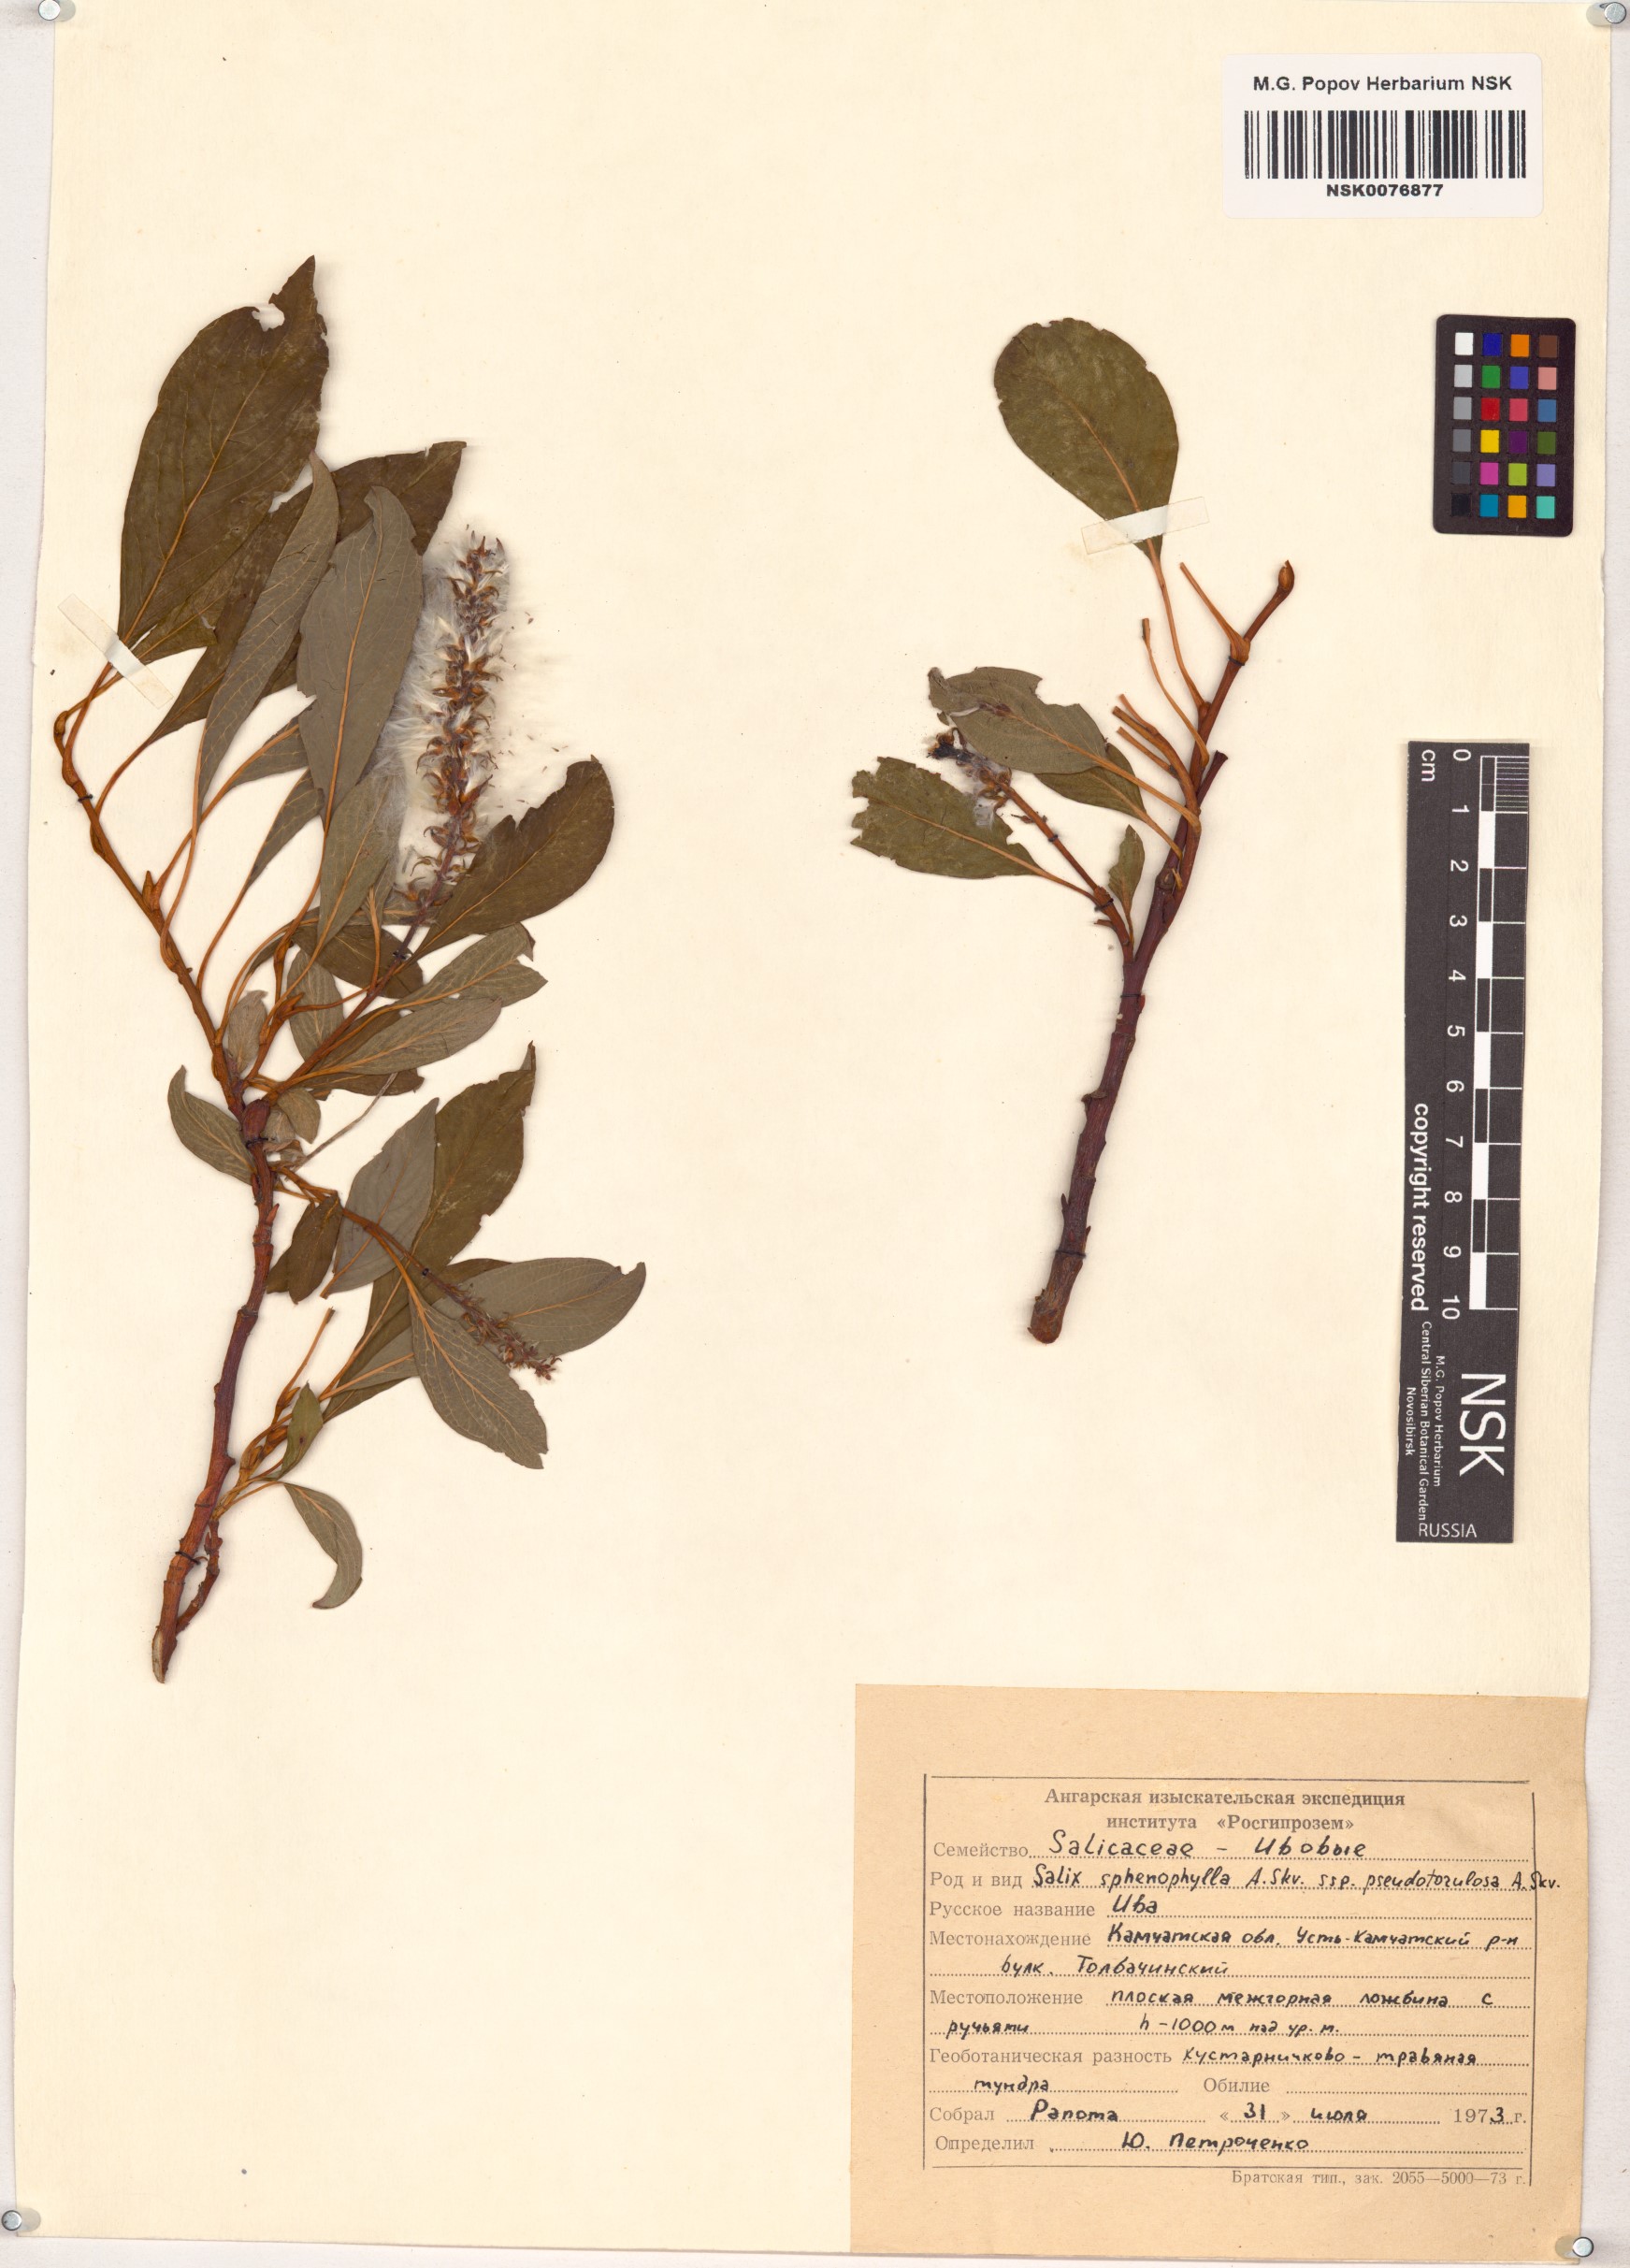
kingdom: Plantae
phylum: Tracheophyta
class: Magnoliopsida
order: Malpighiales
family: Salicaceae
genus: Salix
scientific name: Salix sphenophylla
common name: Wedge-leaved willow
